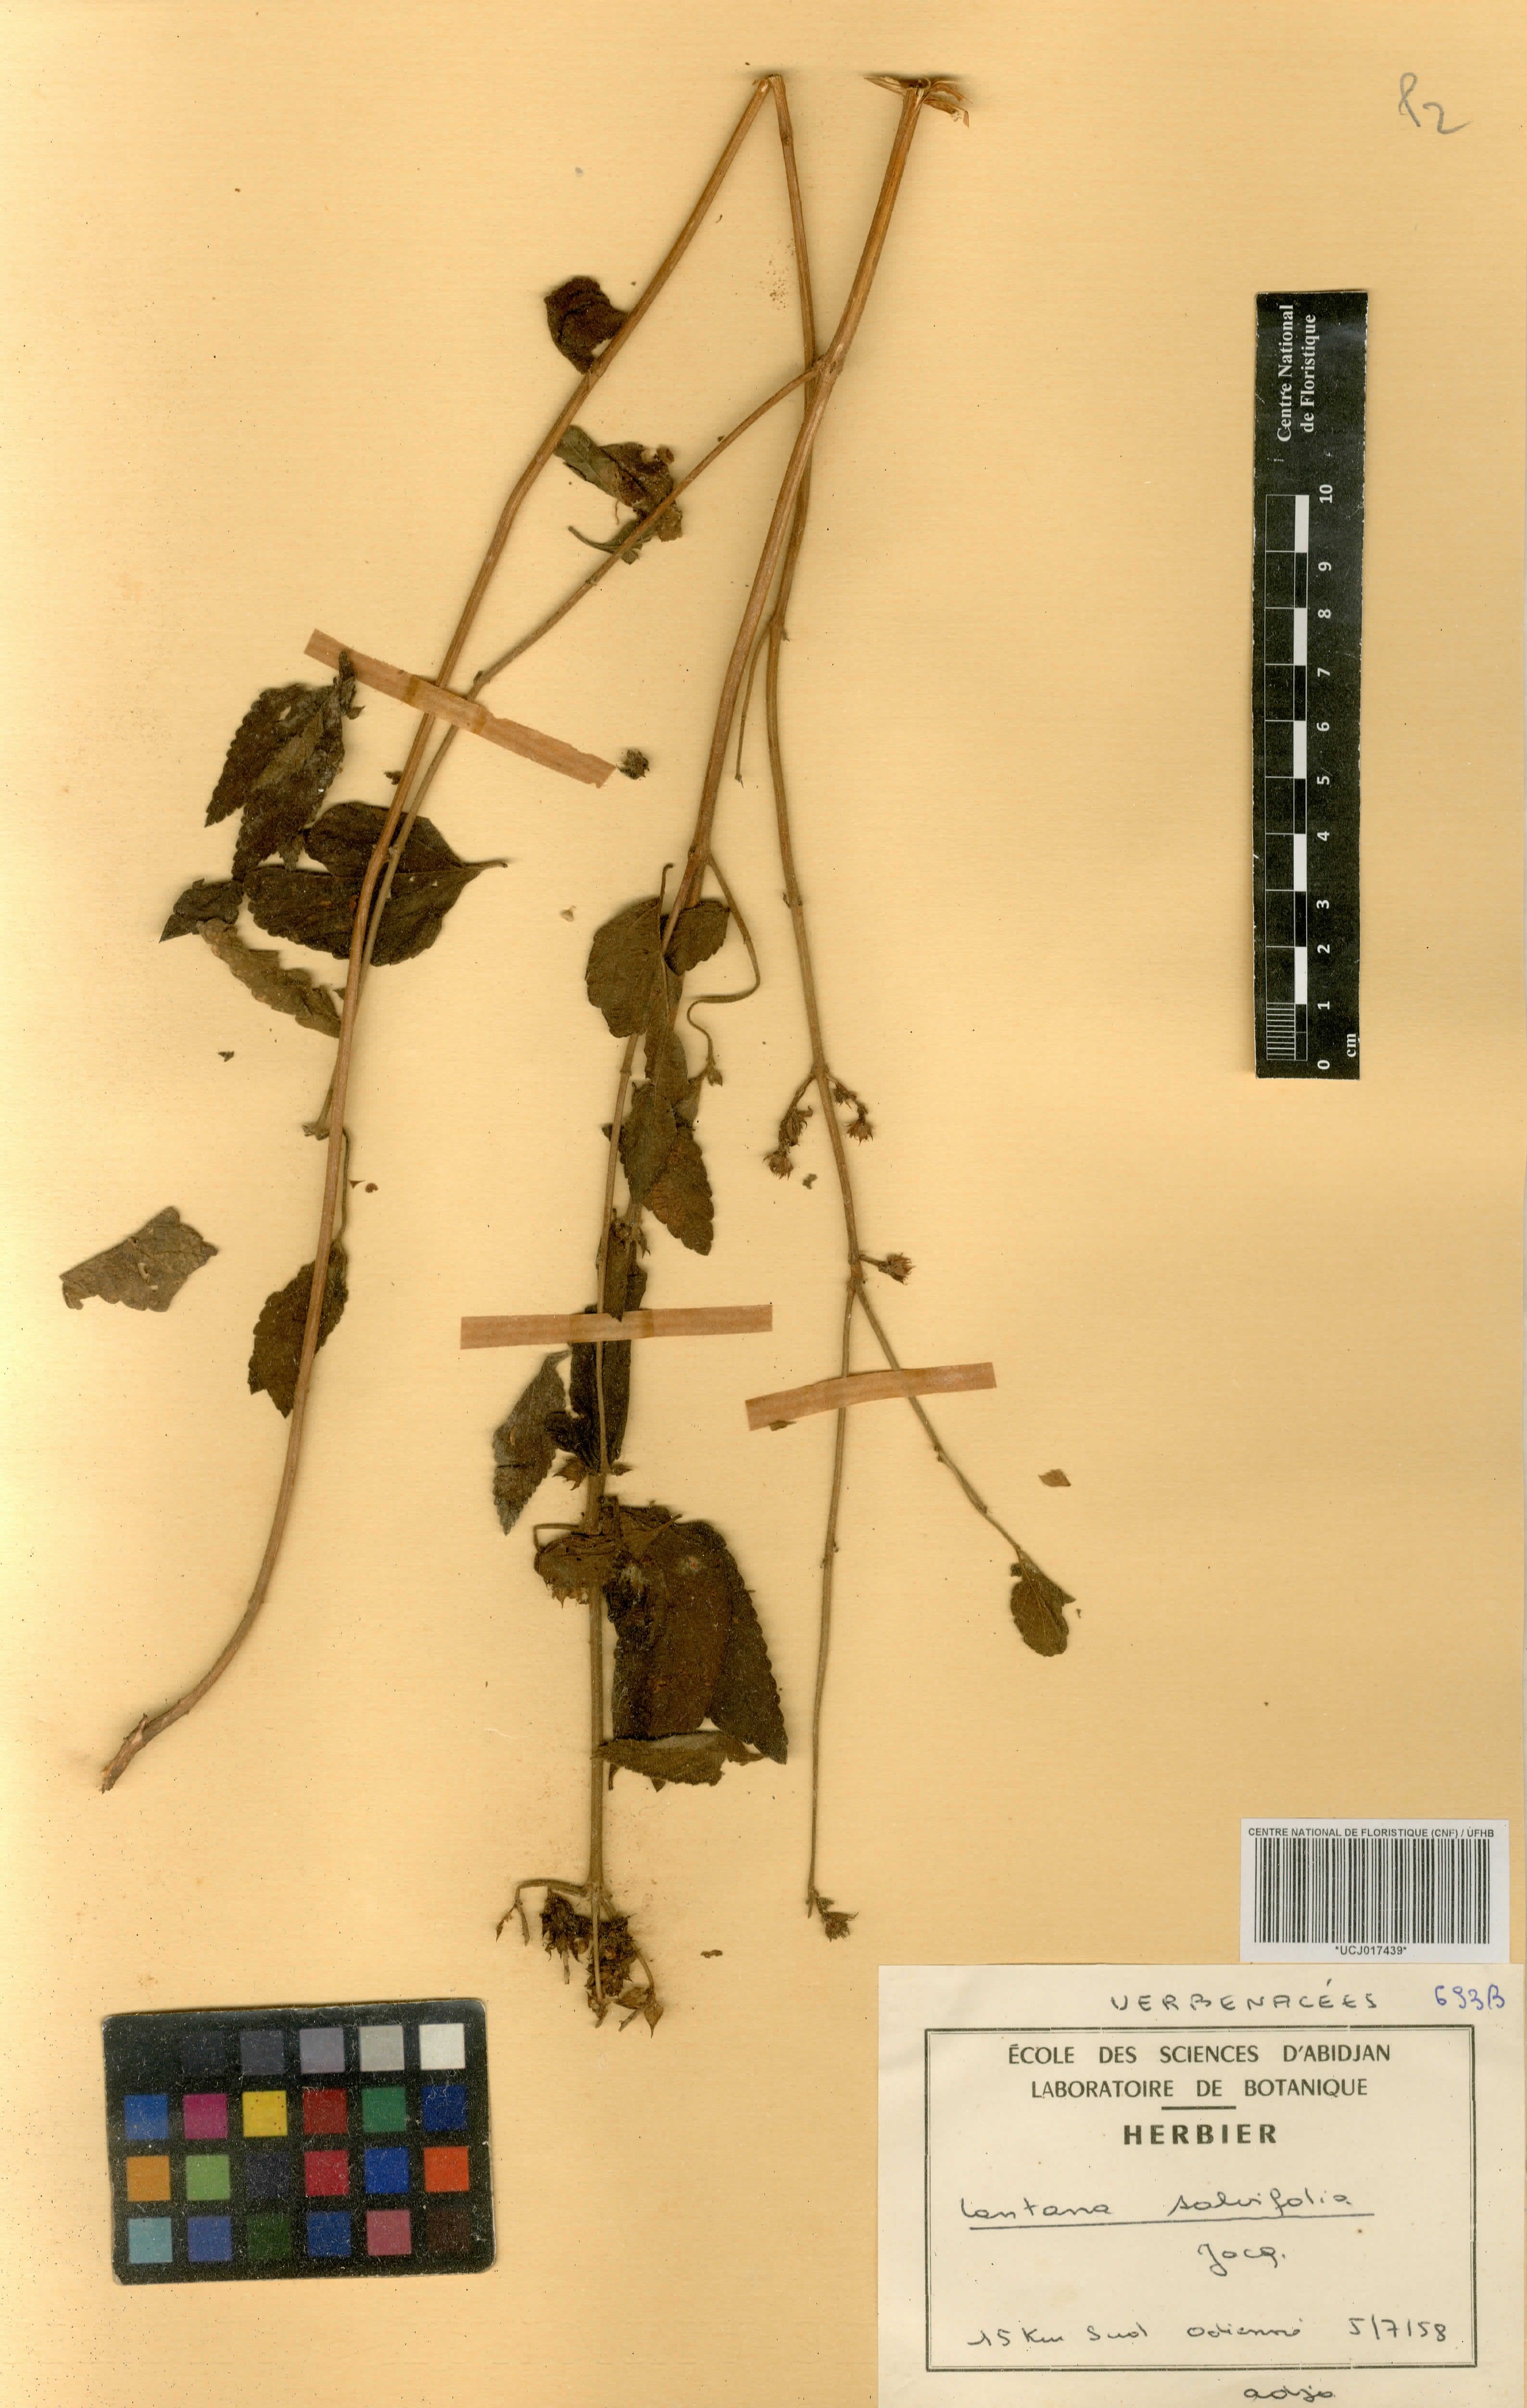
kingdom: Plantae
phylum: Tracheophyta
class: Magnoliopsida
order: Lamiales
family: Verbenaceae
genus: Lantana
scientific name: Lantana rugosa
